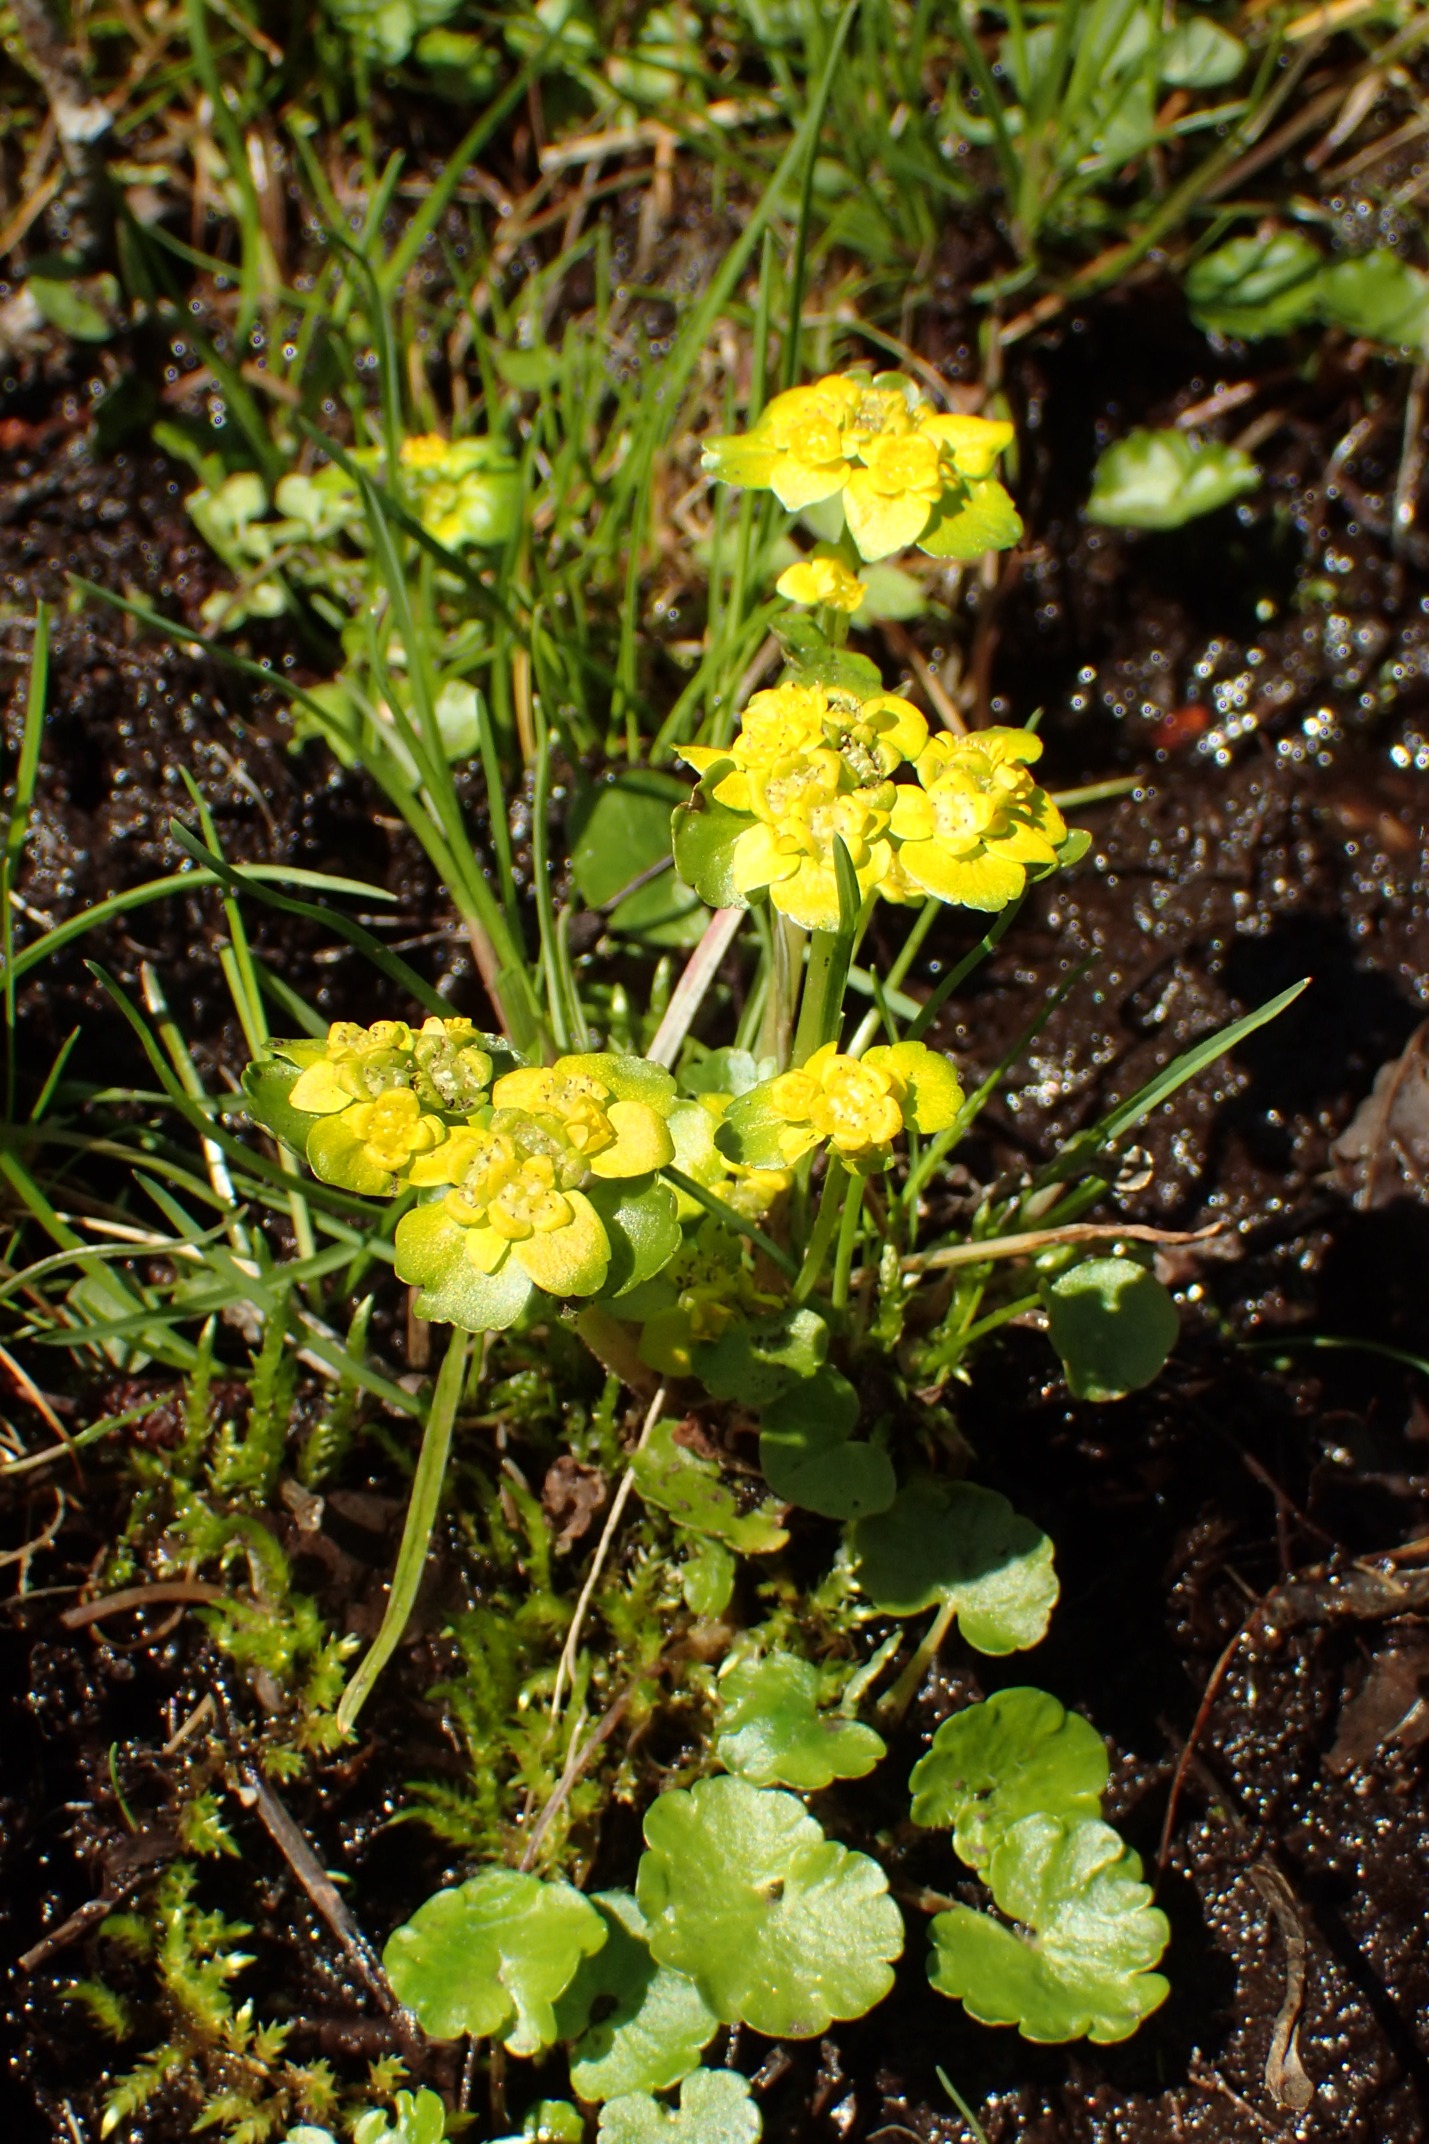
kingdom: Plantae
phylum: Tracheophyta
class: Magnoliopsida
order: Saxifragales
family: Saxifragaceae
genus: Chrysosplenium
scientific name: Chrysosplenium alternifolium
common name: Almindelig milturt
